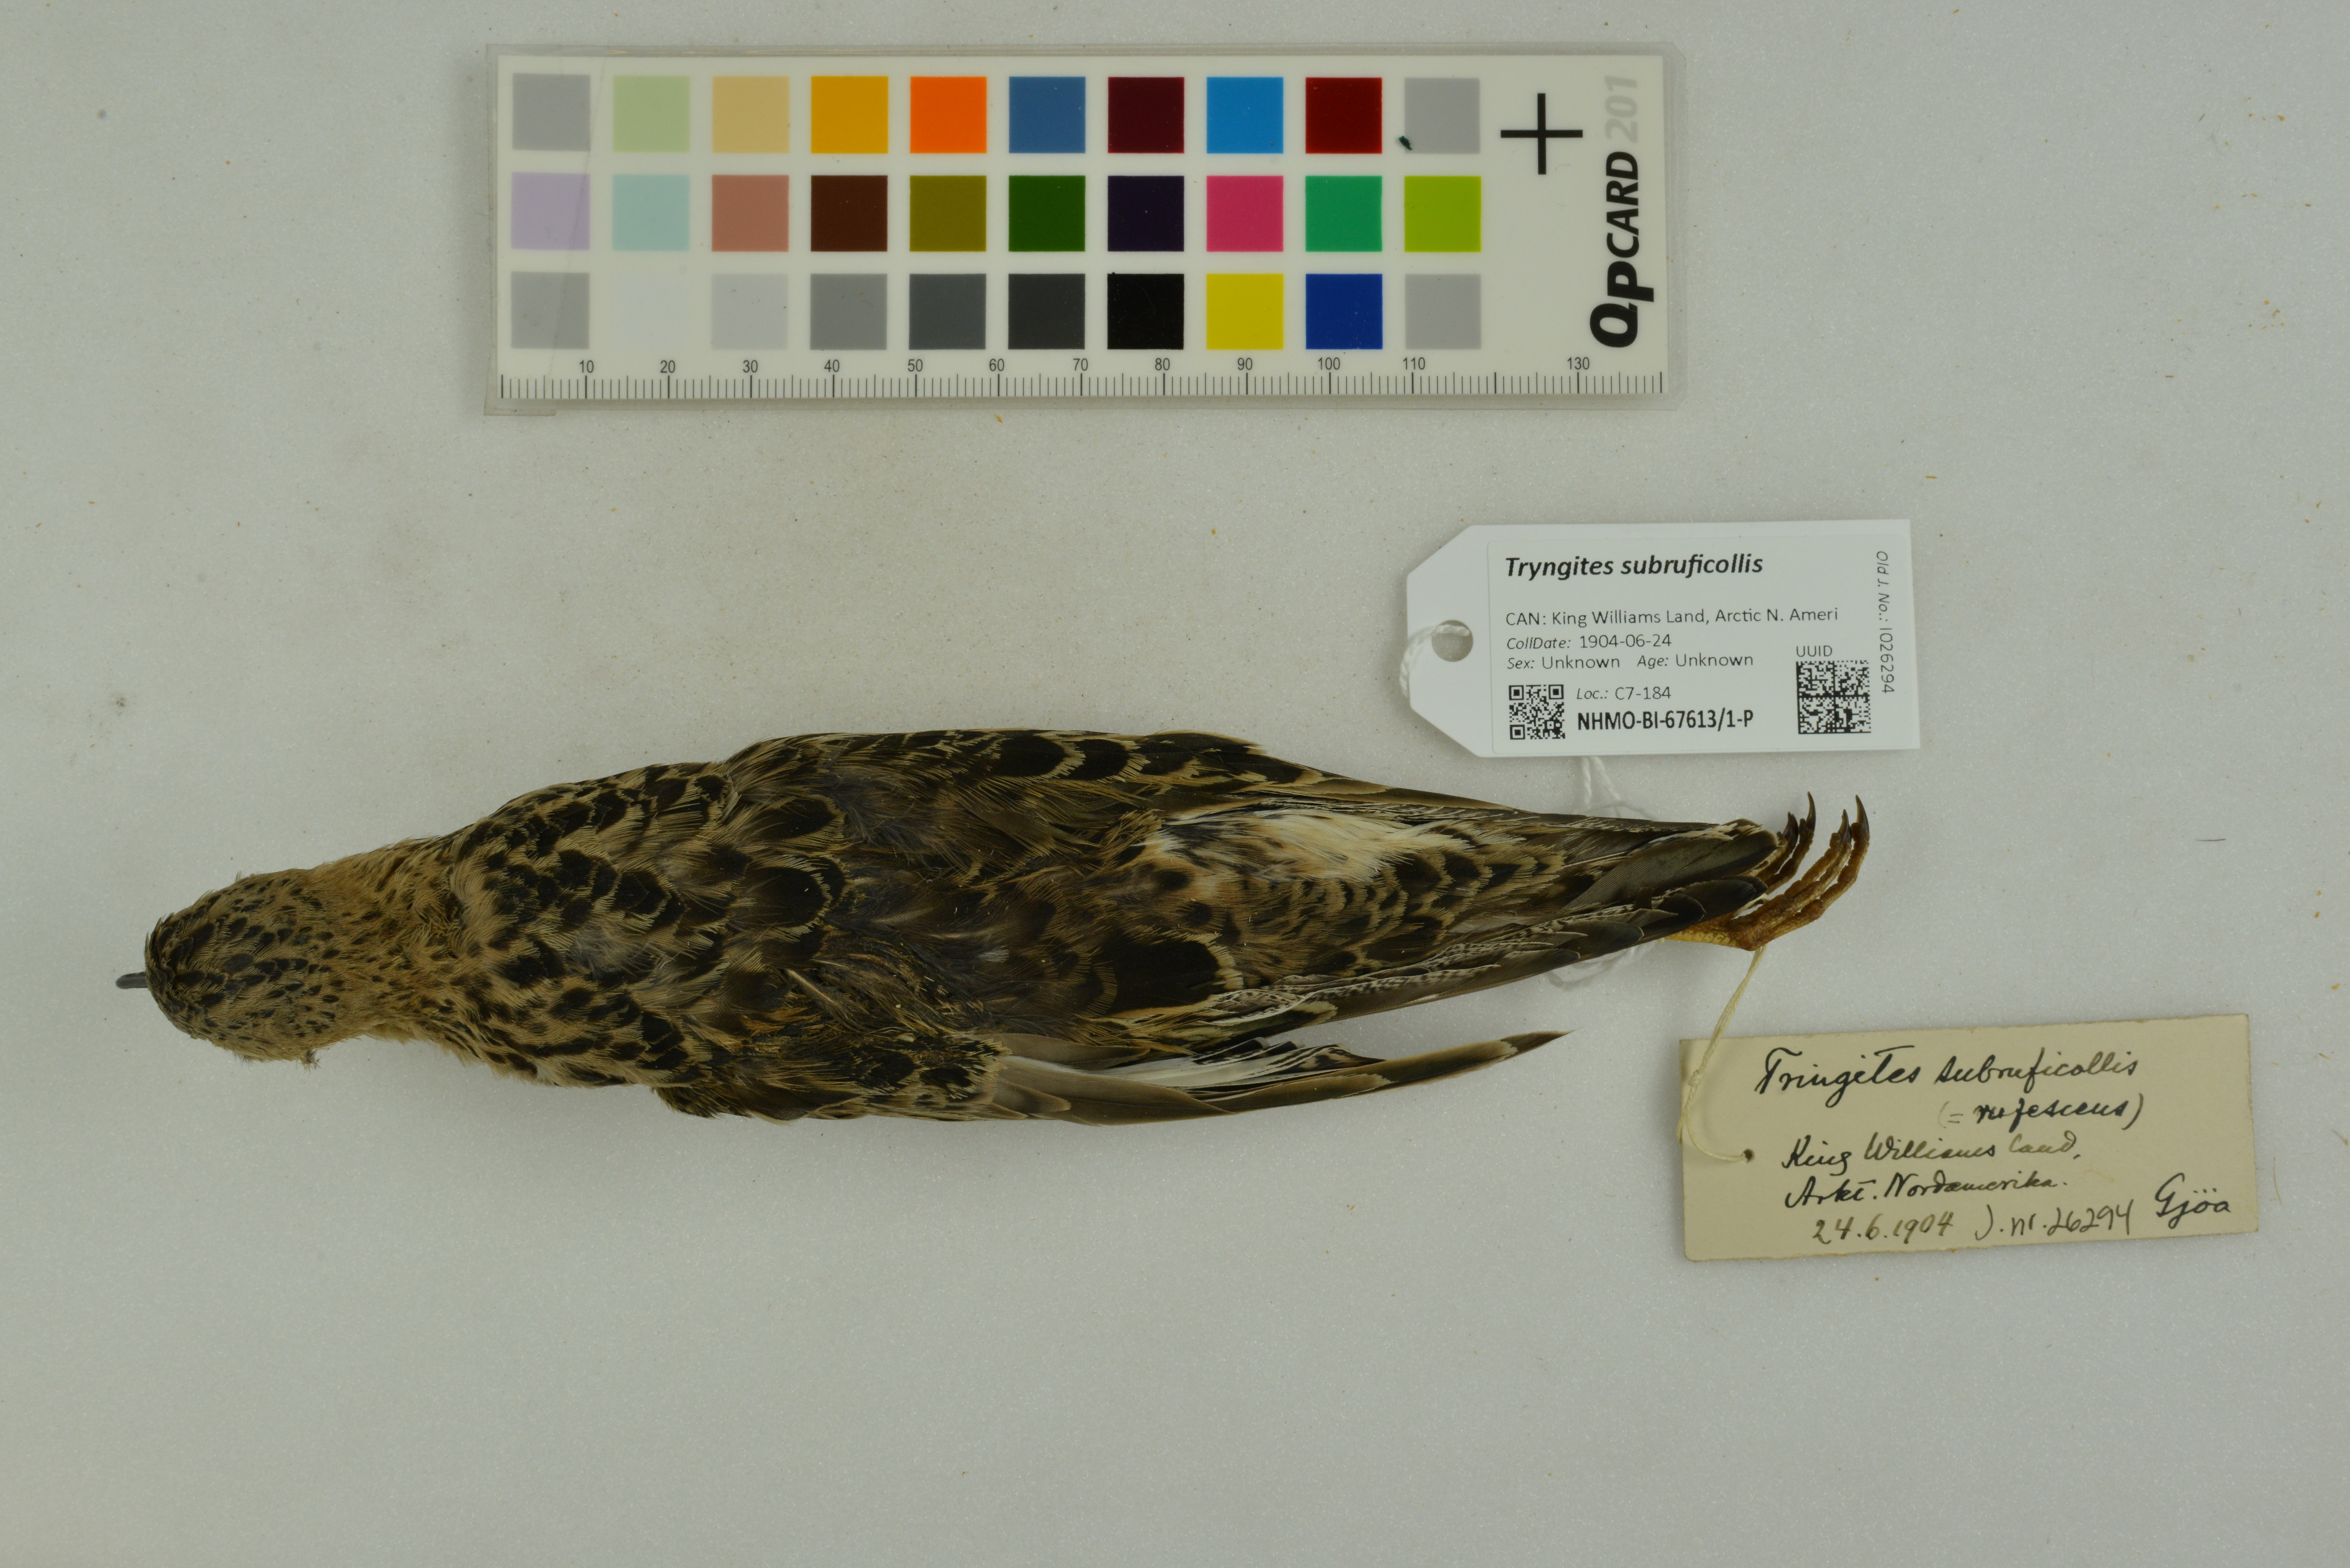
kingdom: Animalia
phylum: Chordata
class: Aves
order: Charadriiformes
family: Scolopacidae
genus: Calidris
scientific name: Calidris subruficollis
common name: Buff-breasted sandpiper
